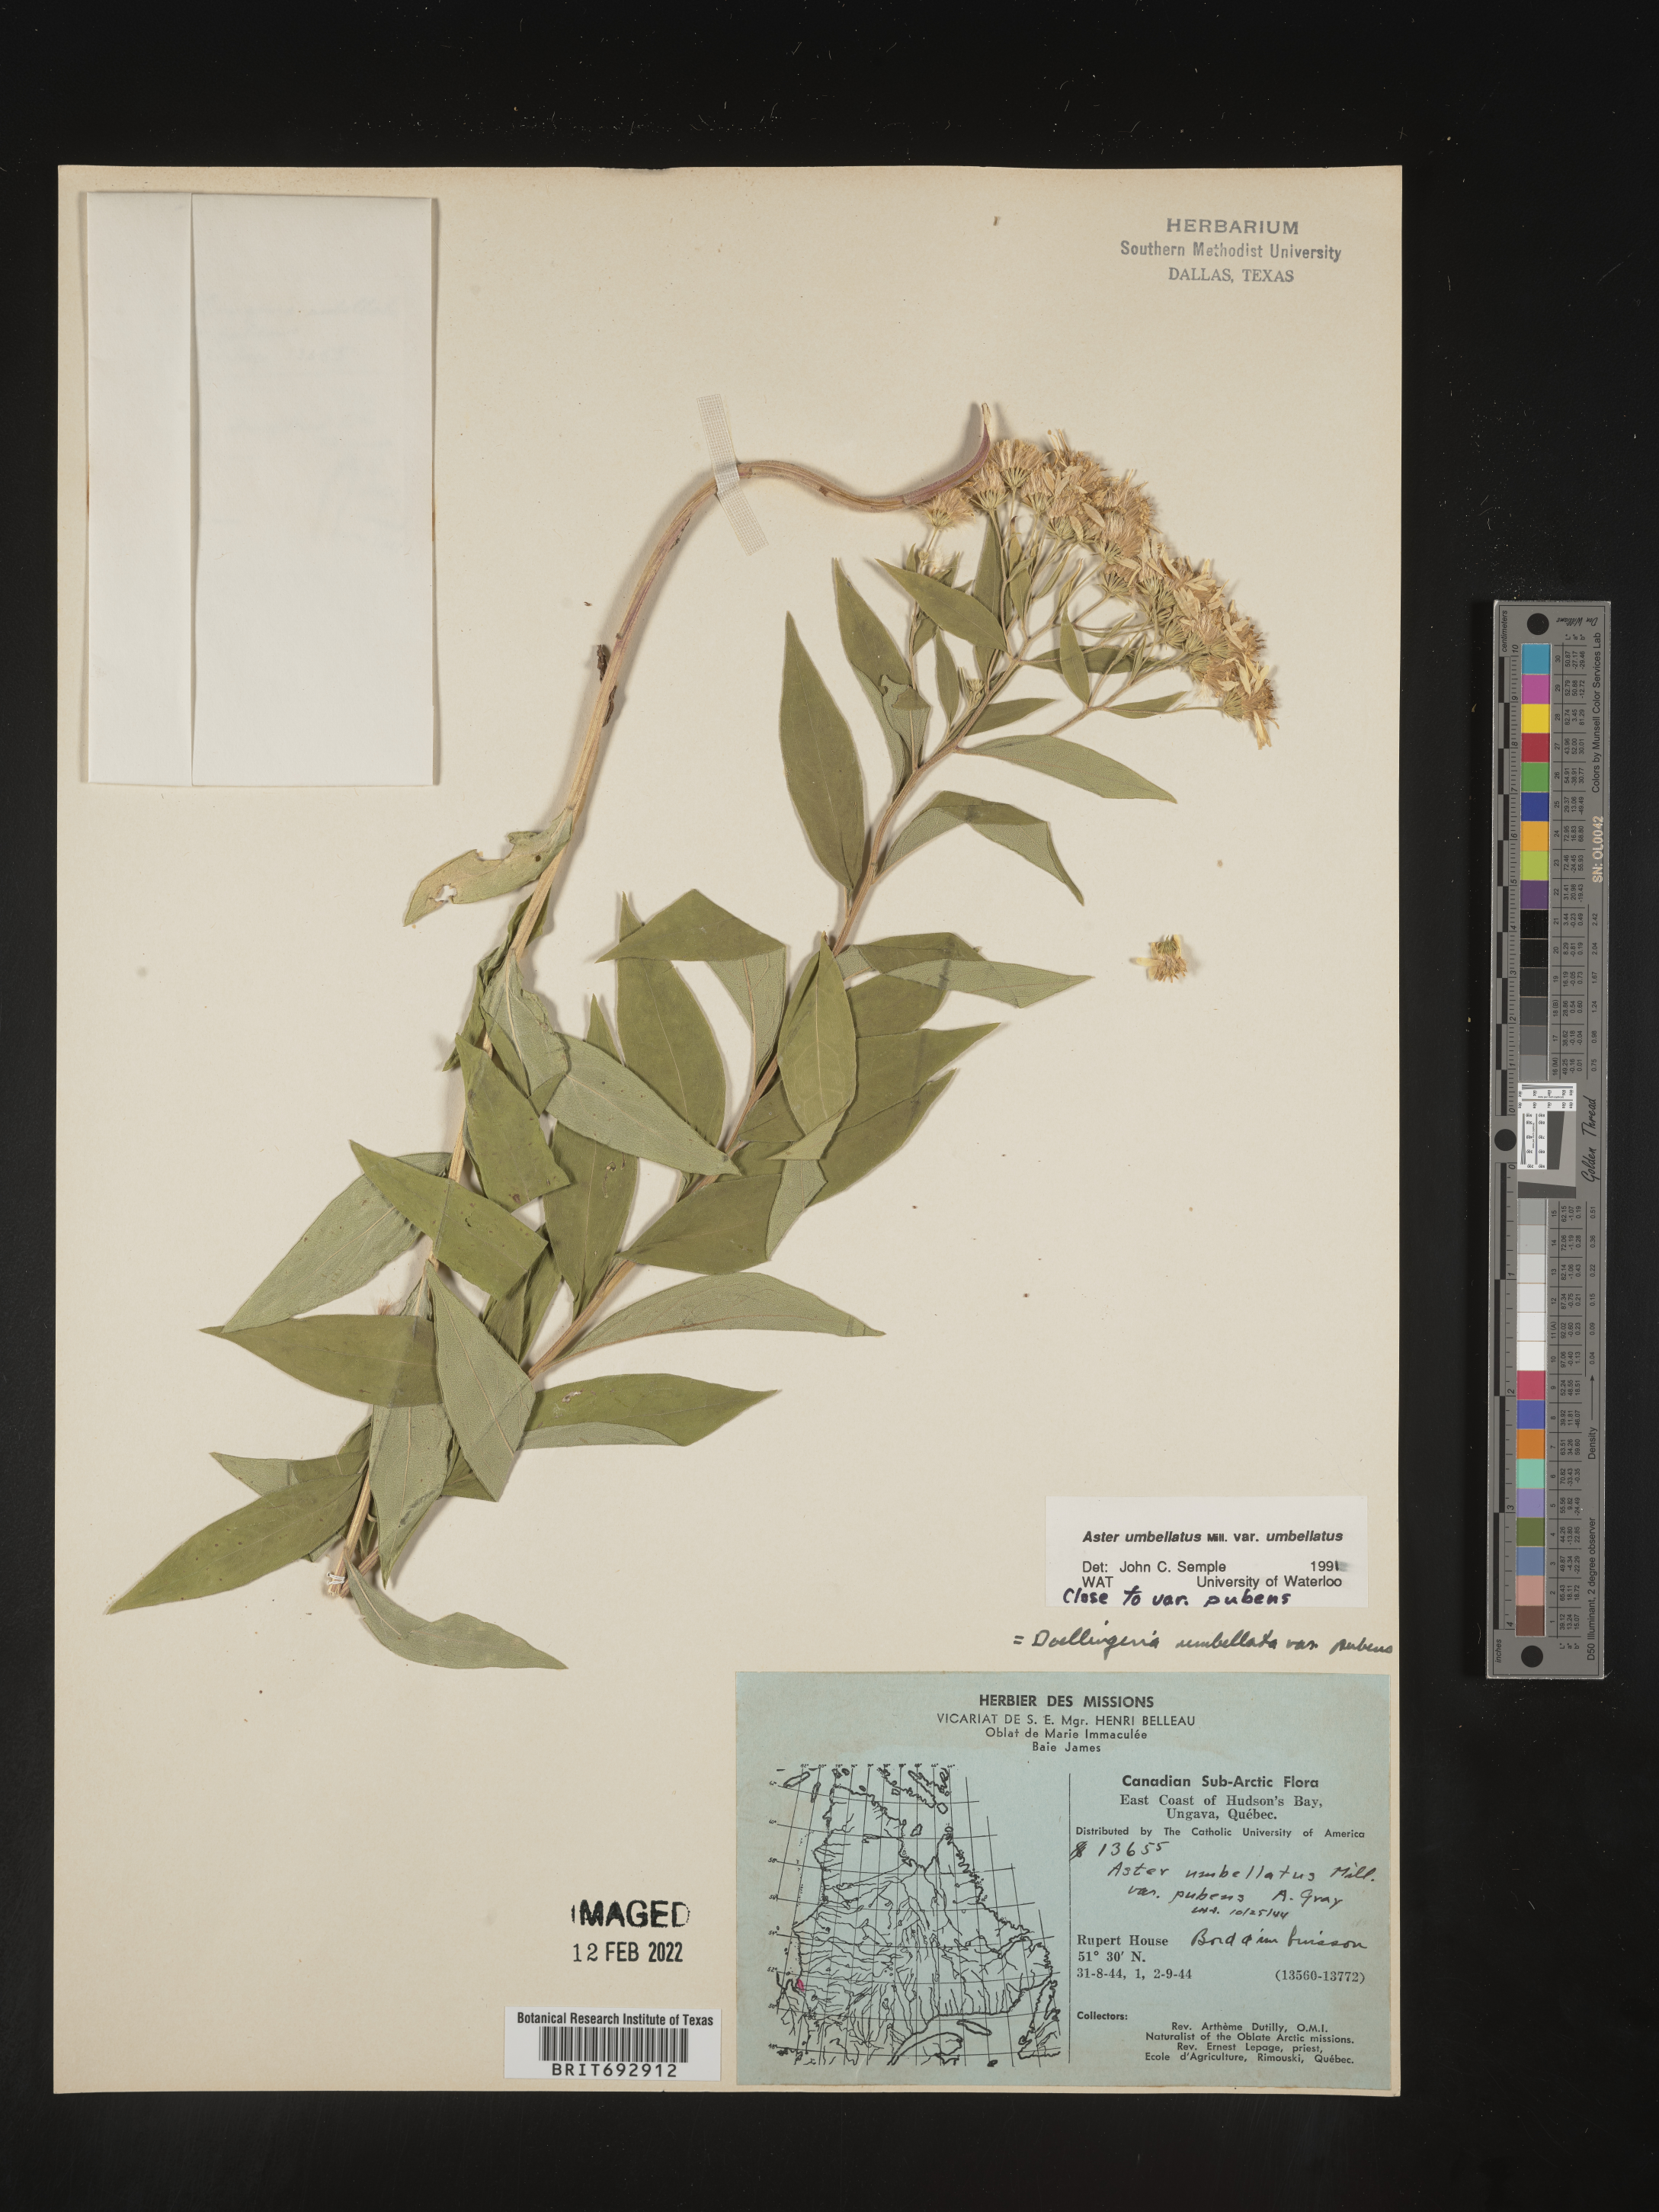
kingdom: Plantae
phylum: Tracheophyta
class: Magnoliopsida
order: Asterales
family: Asteraceae
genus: Doellingeria
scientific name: Doellingeria umbellata
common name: Flat-top white aster
